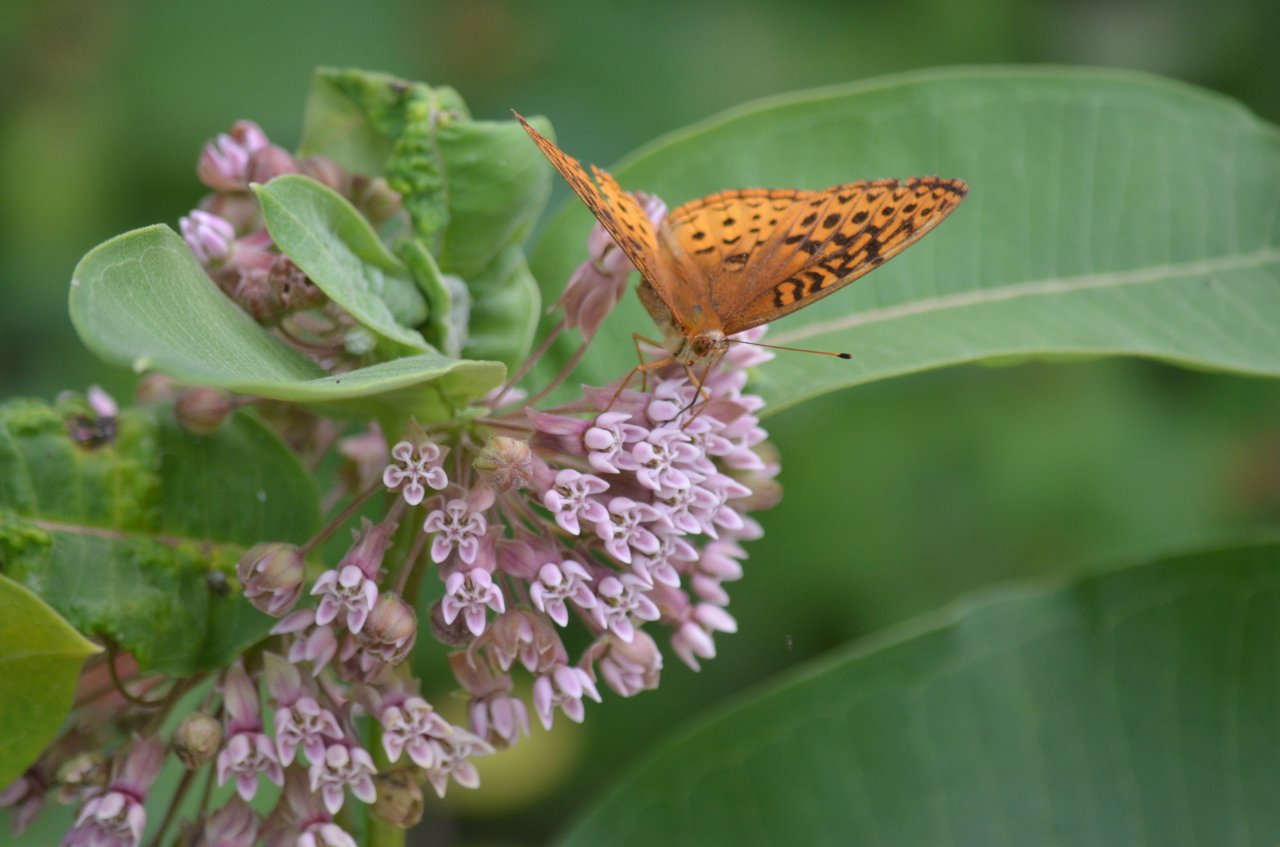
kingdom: Animalia
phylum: Arthropoda
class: Insecta
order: Lepidoptera
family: Nymphalidae
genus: Speyeria
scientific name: Speyeria cybele
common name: Great Spangled Fritillary
